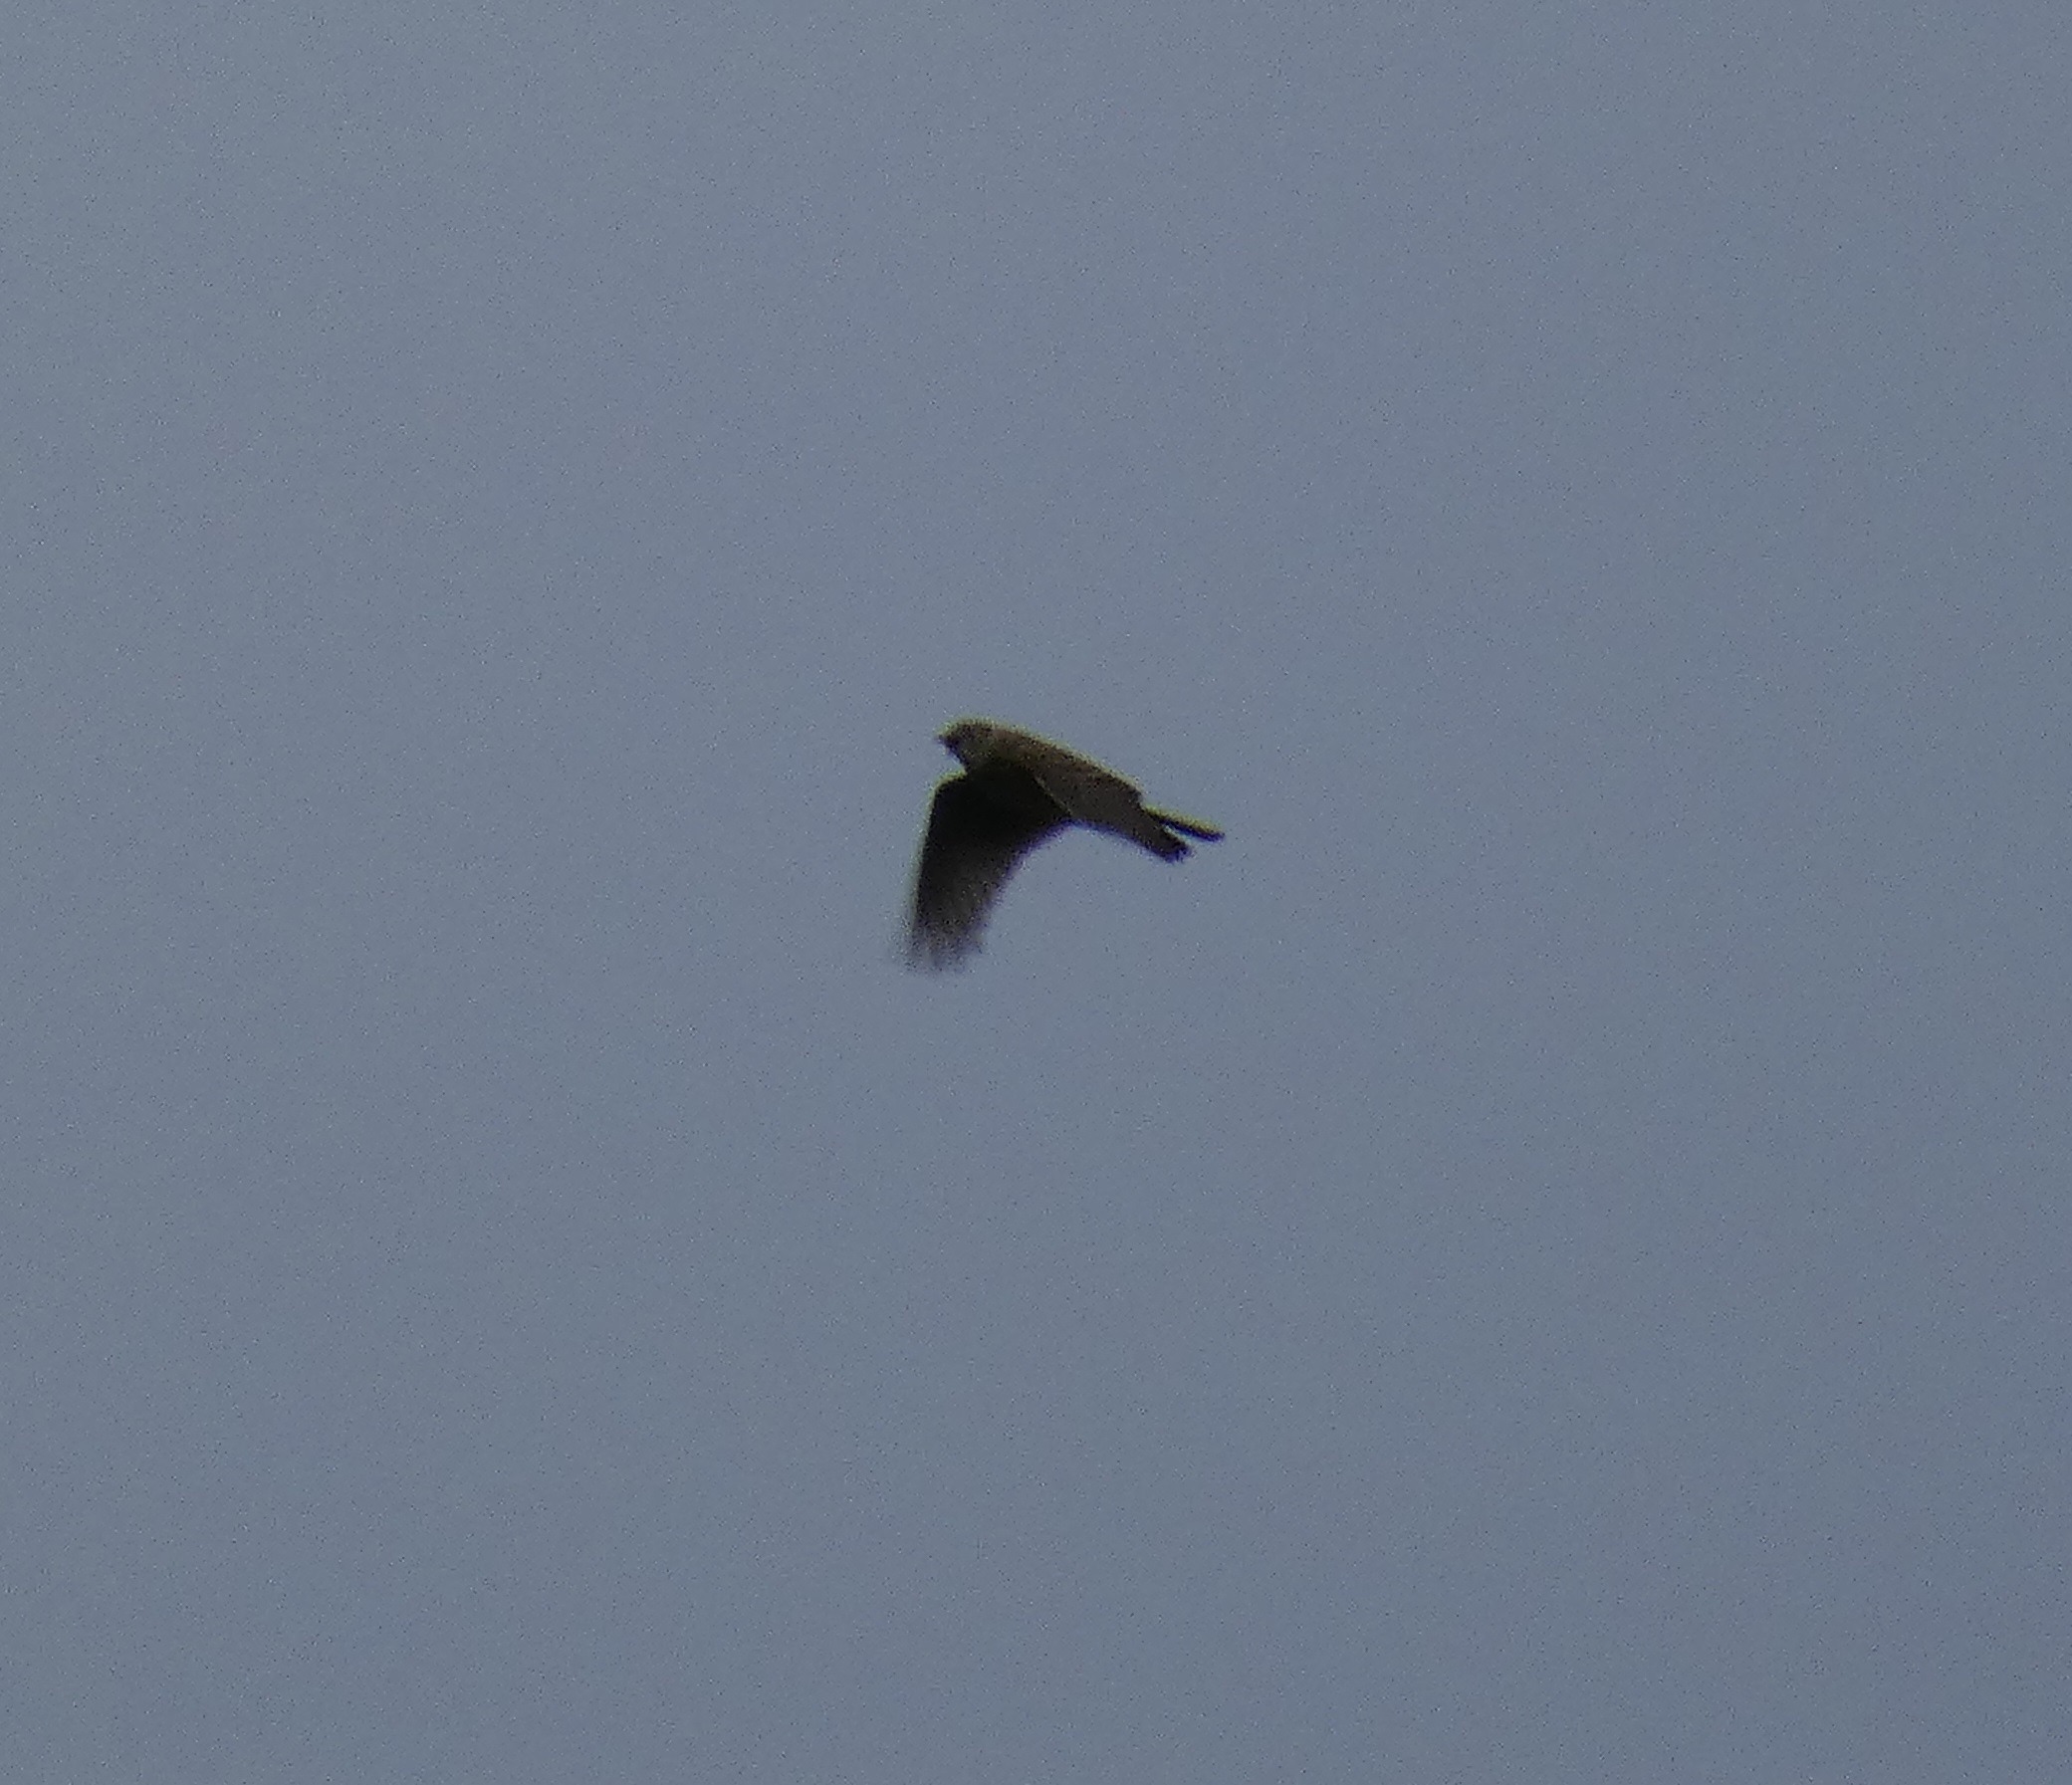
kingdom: Animalia
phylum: Chordata
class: Aves
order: Passeriformes
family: Alaudidae
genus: Alauda
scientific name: Alauda arvensis
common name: Sanglærke
